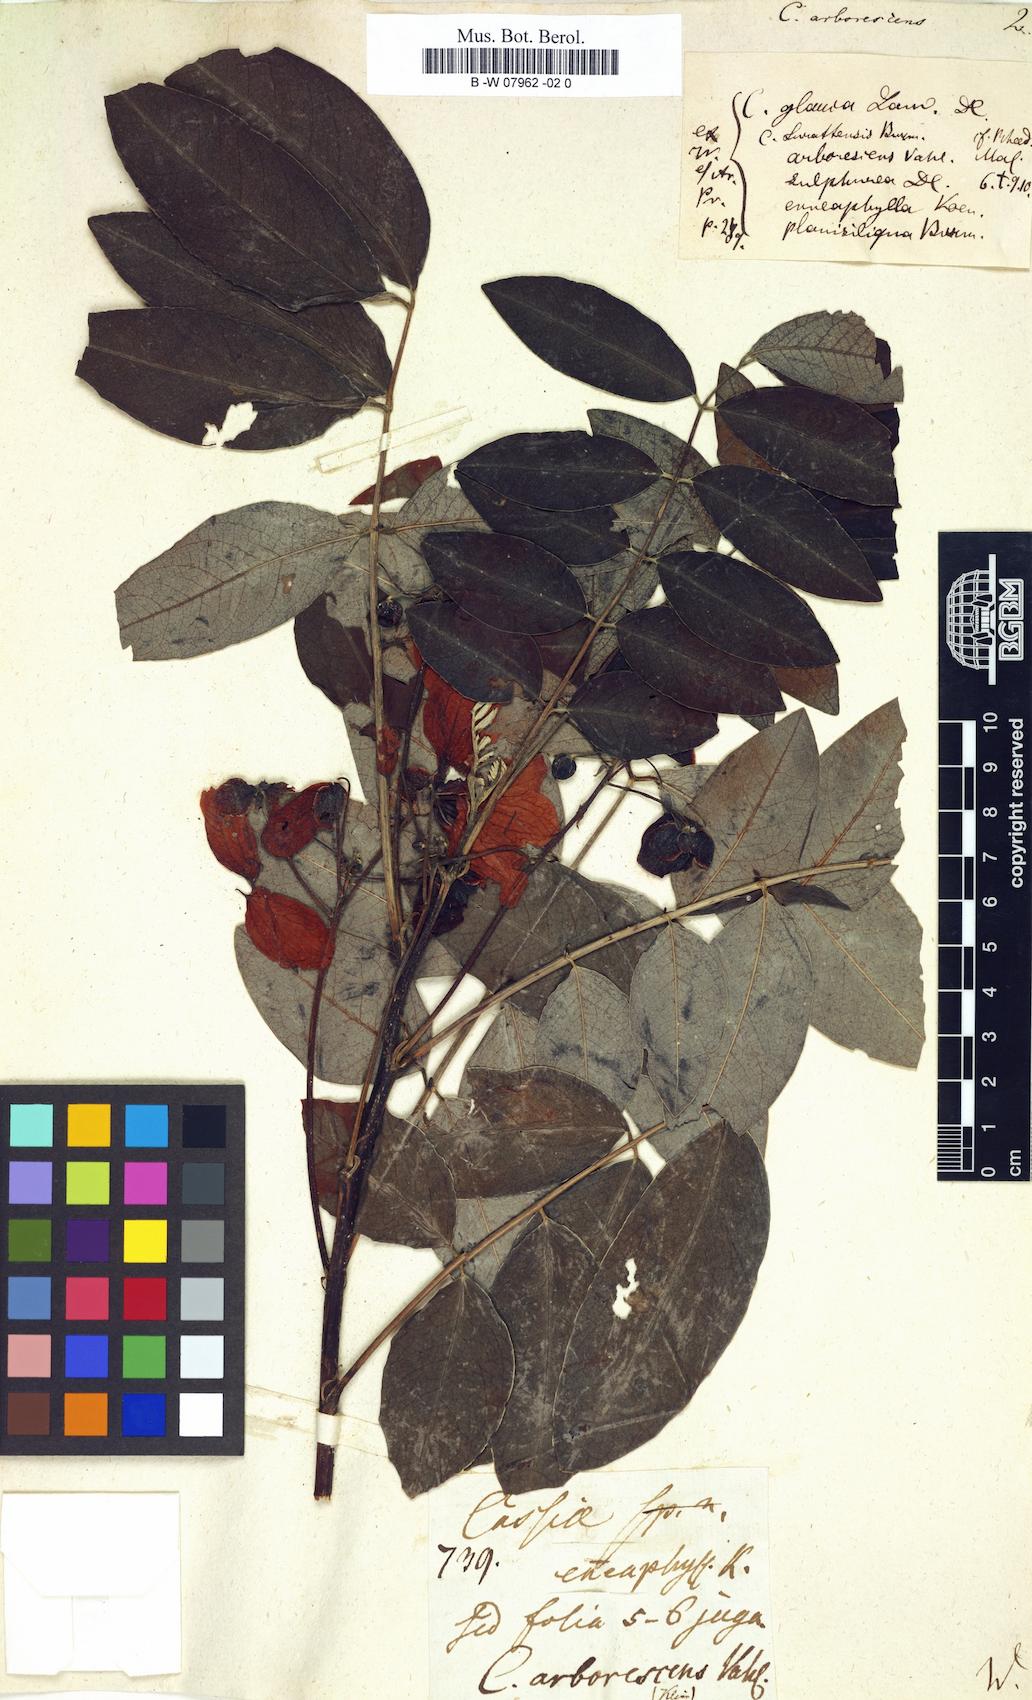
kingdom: Plantae
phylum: Tracheophyta
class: Magnoliopsida
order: Fabales
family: Fabaceae
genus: Senna
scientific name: Senna fruticosa
